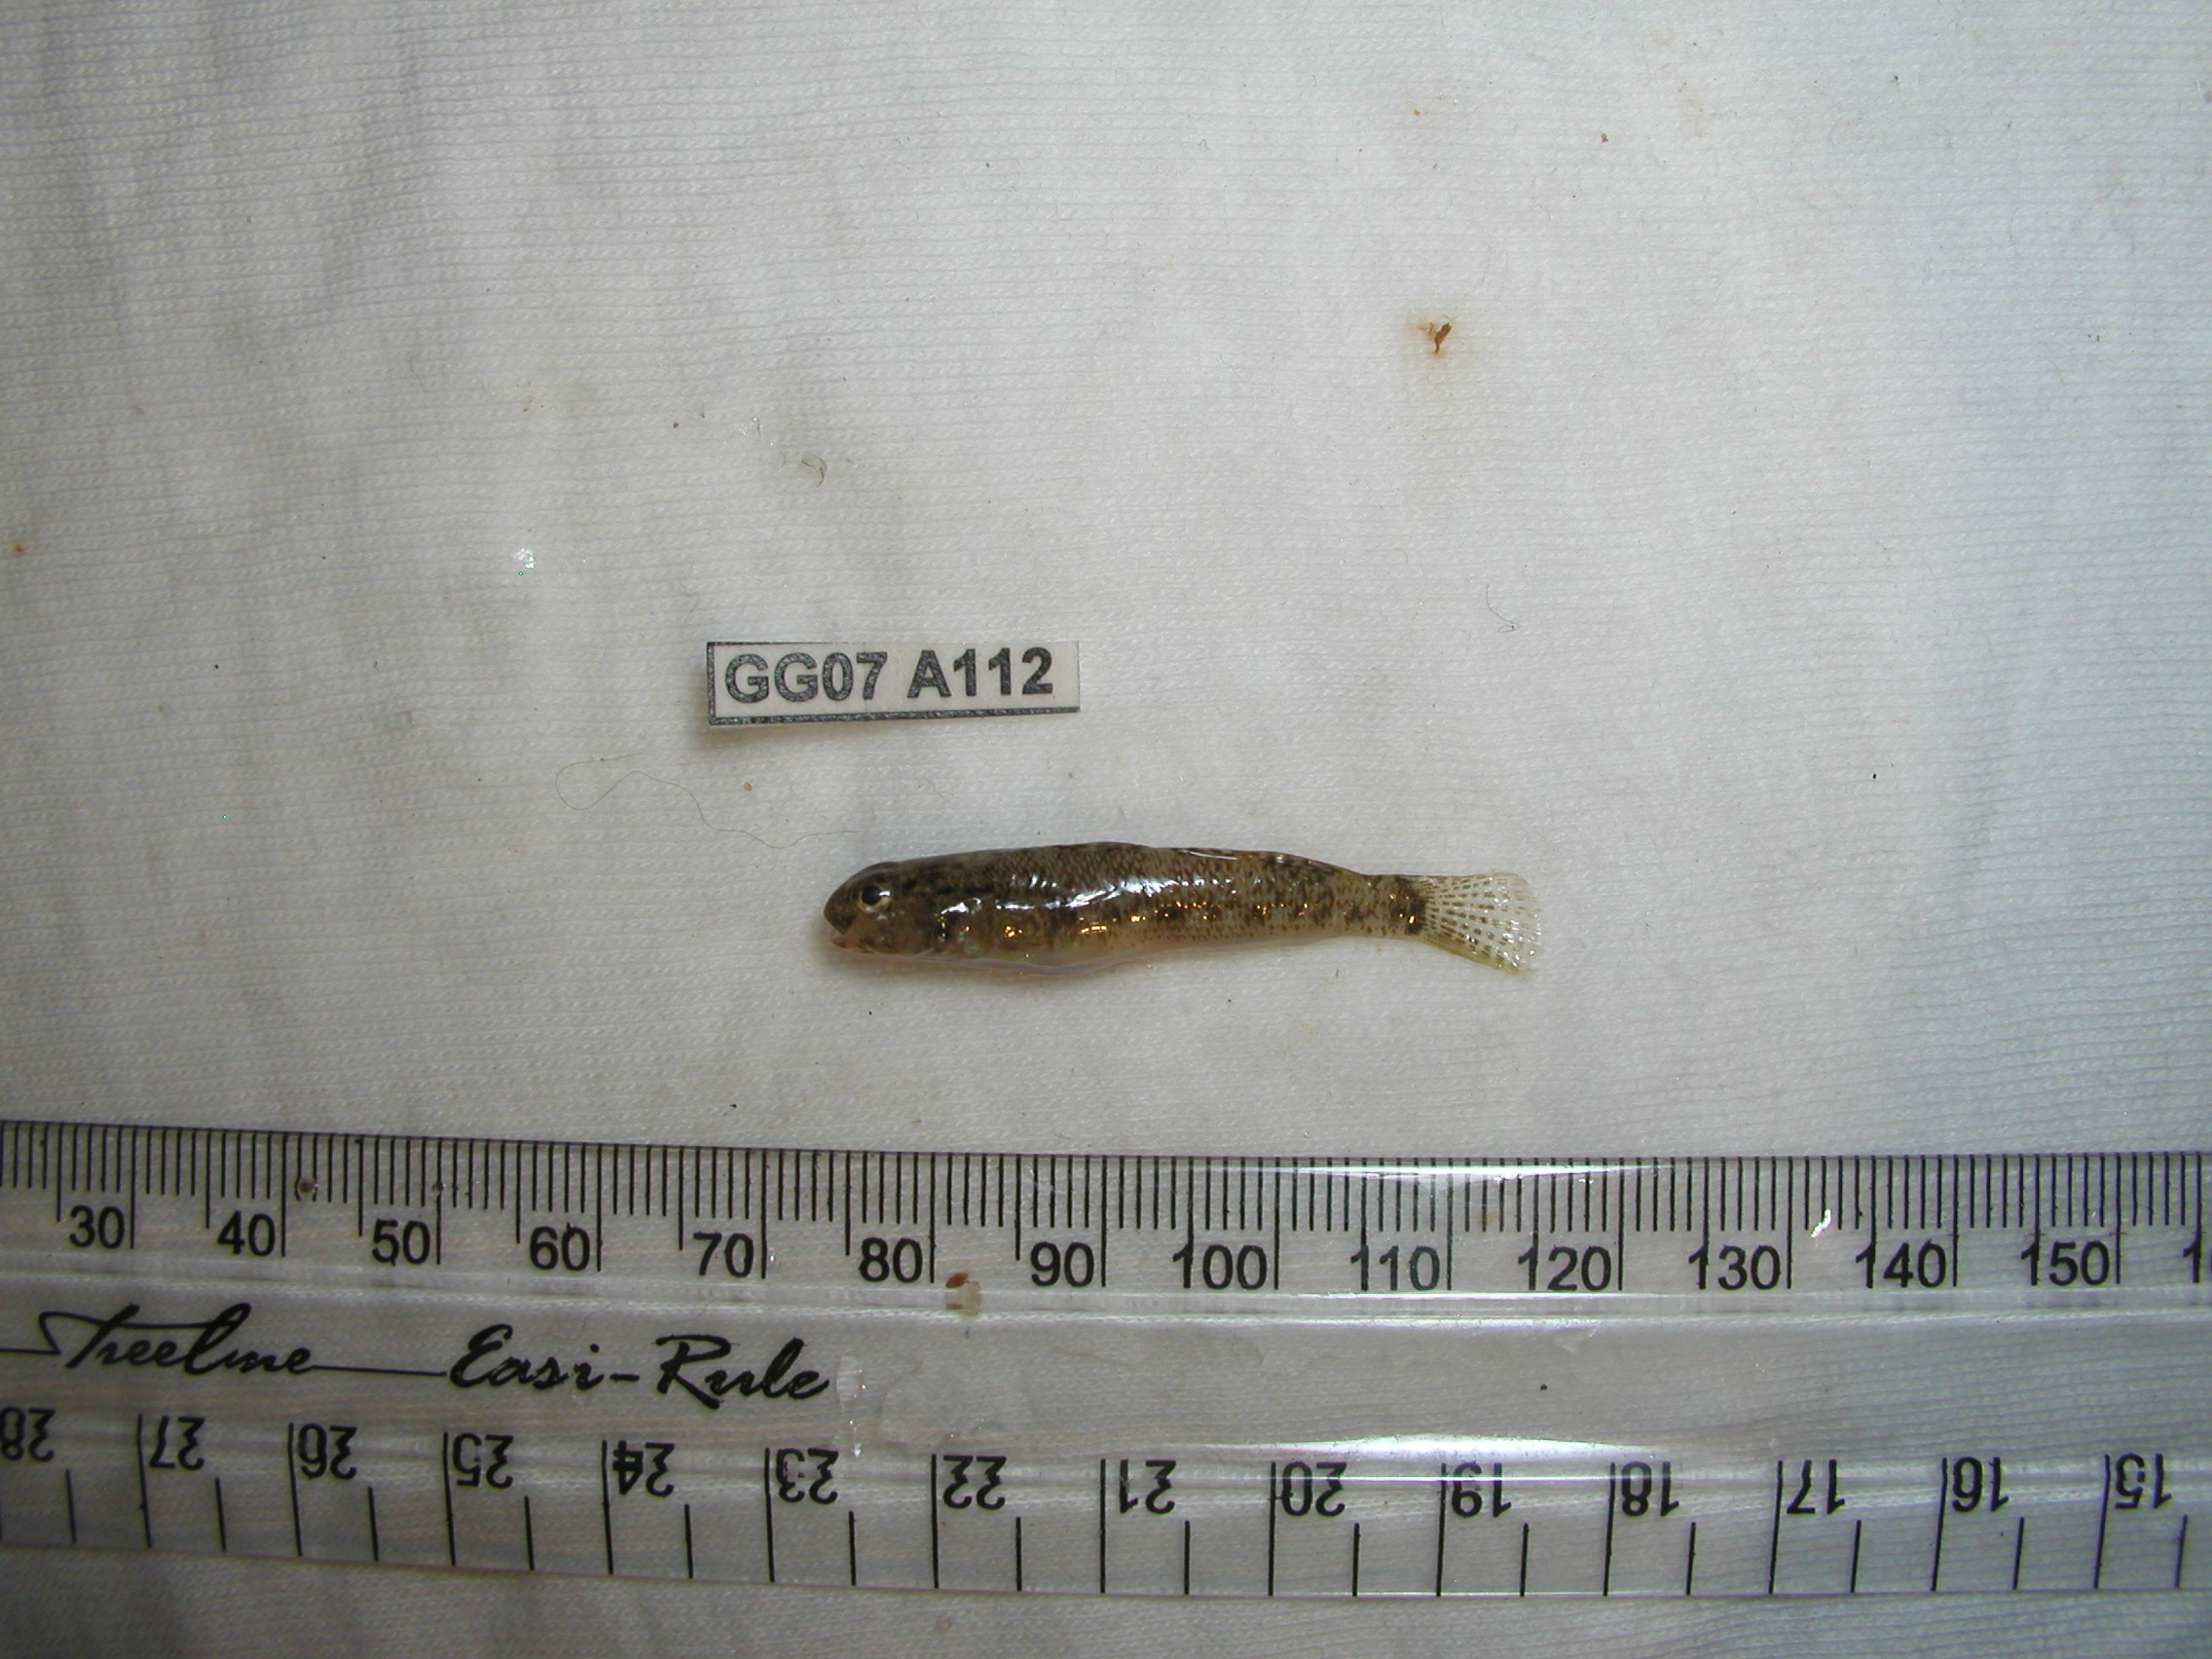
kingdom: Animalia
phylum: Chordata
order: Perciformes
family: Gobiidae
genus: Bathygobius
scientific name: Bathygobius laddi
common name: Brownboy goby
